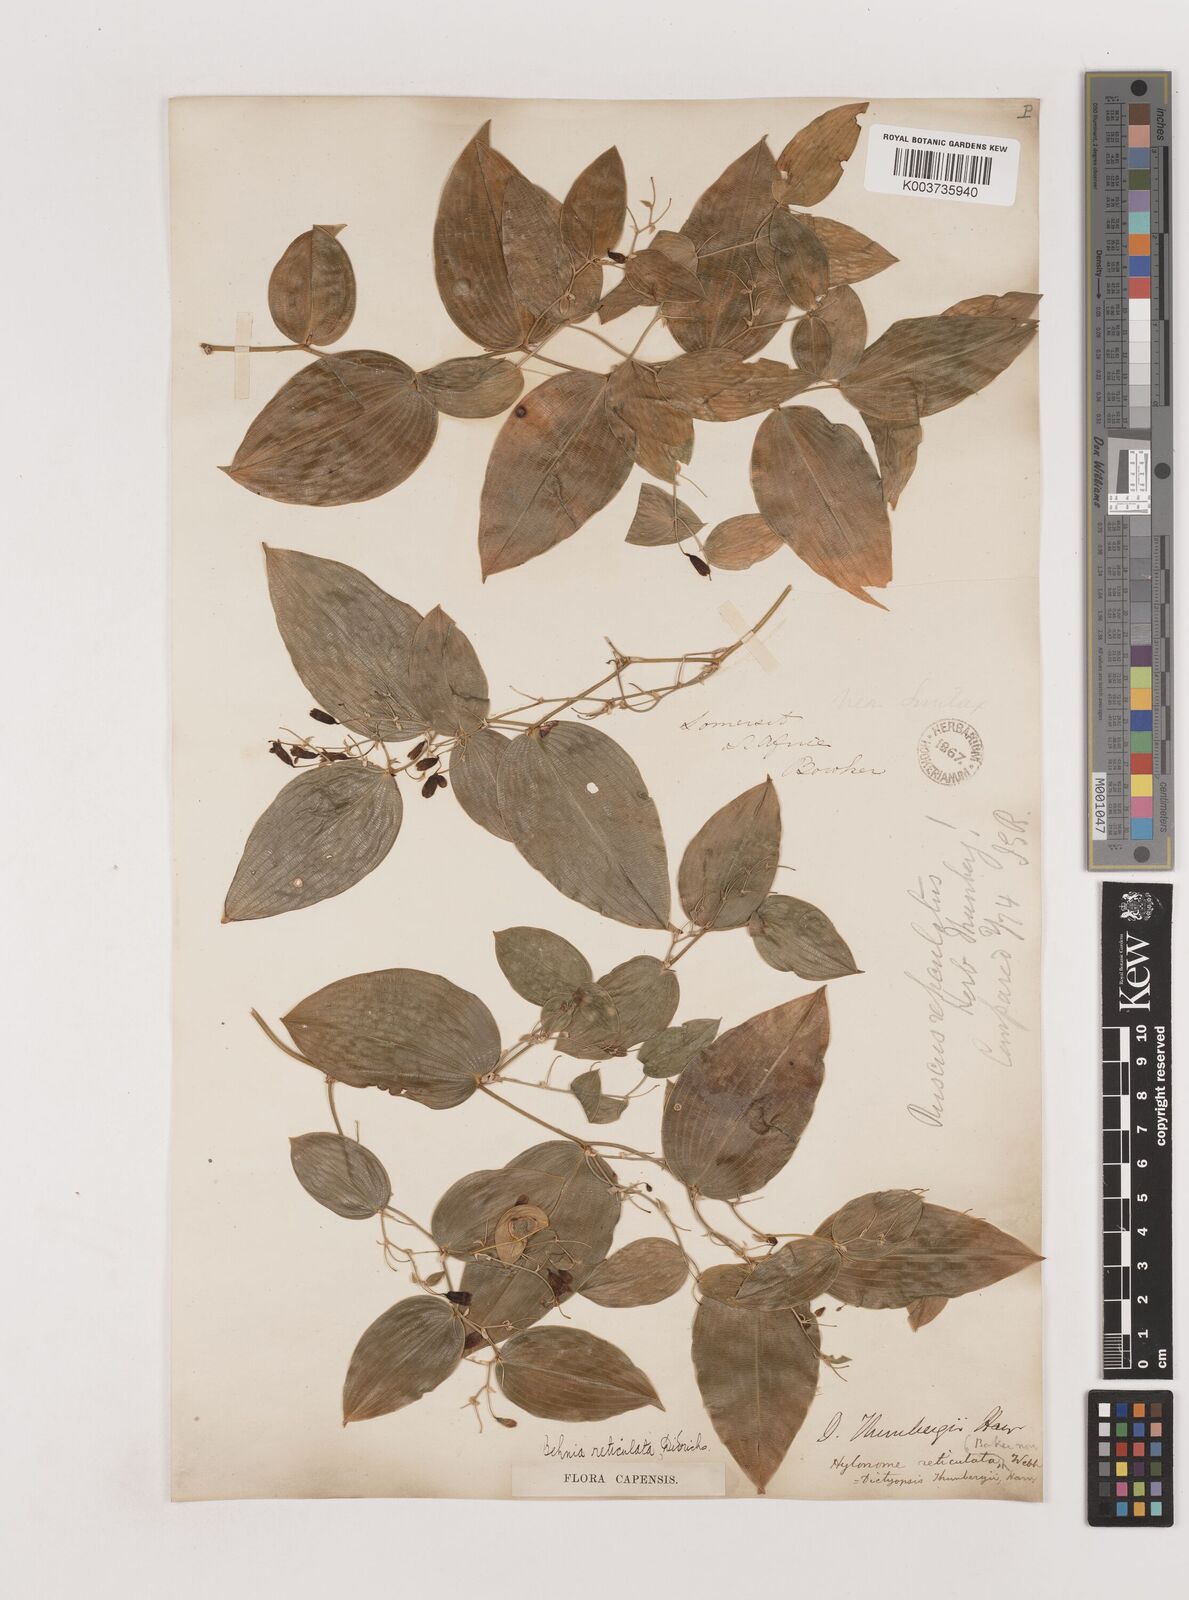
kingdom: Plantae
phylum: Tracheophyta
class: Liliopsida
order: Asparagales
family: Asparagaceae
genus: Behnia
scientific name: Behnia reticulata
